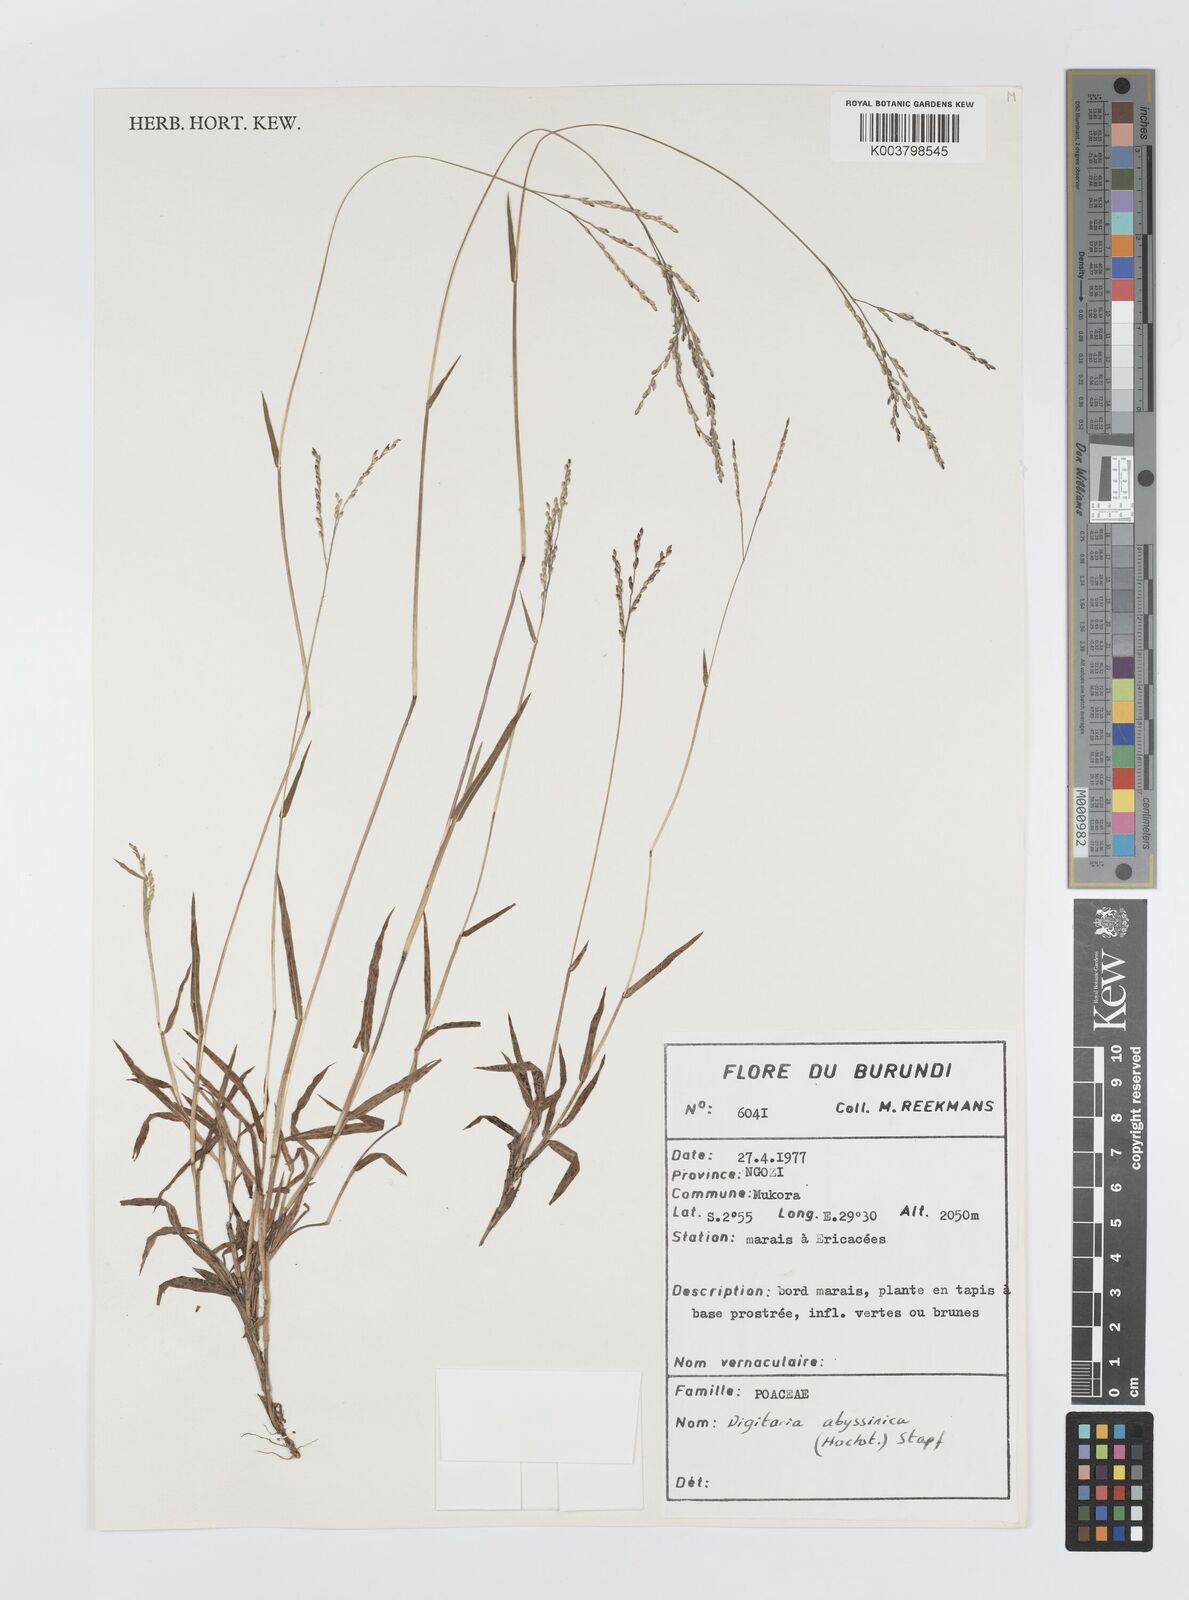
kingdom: Plantae
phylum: Tracheophyta
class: Liliopsida
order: Poales
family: Poaceae
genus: Digitaria
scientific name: Digitaria abyssinica
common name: African couchgrass
